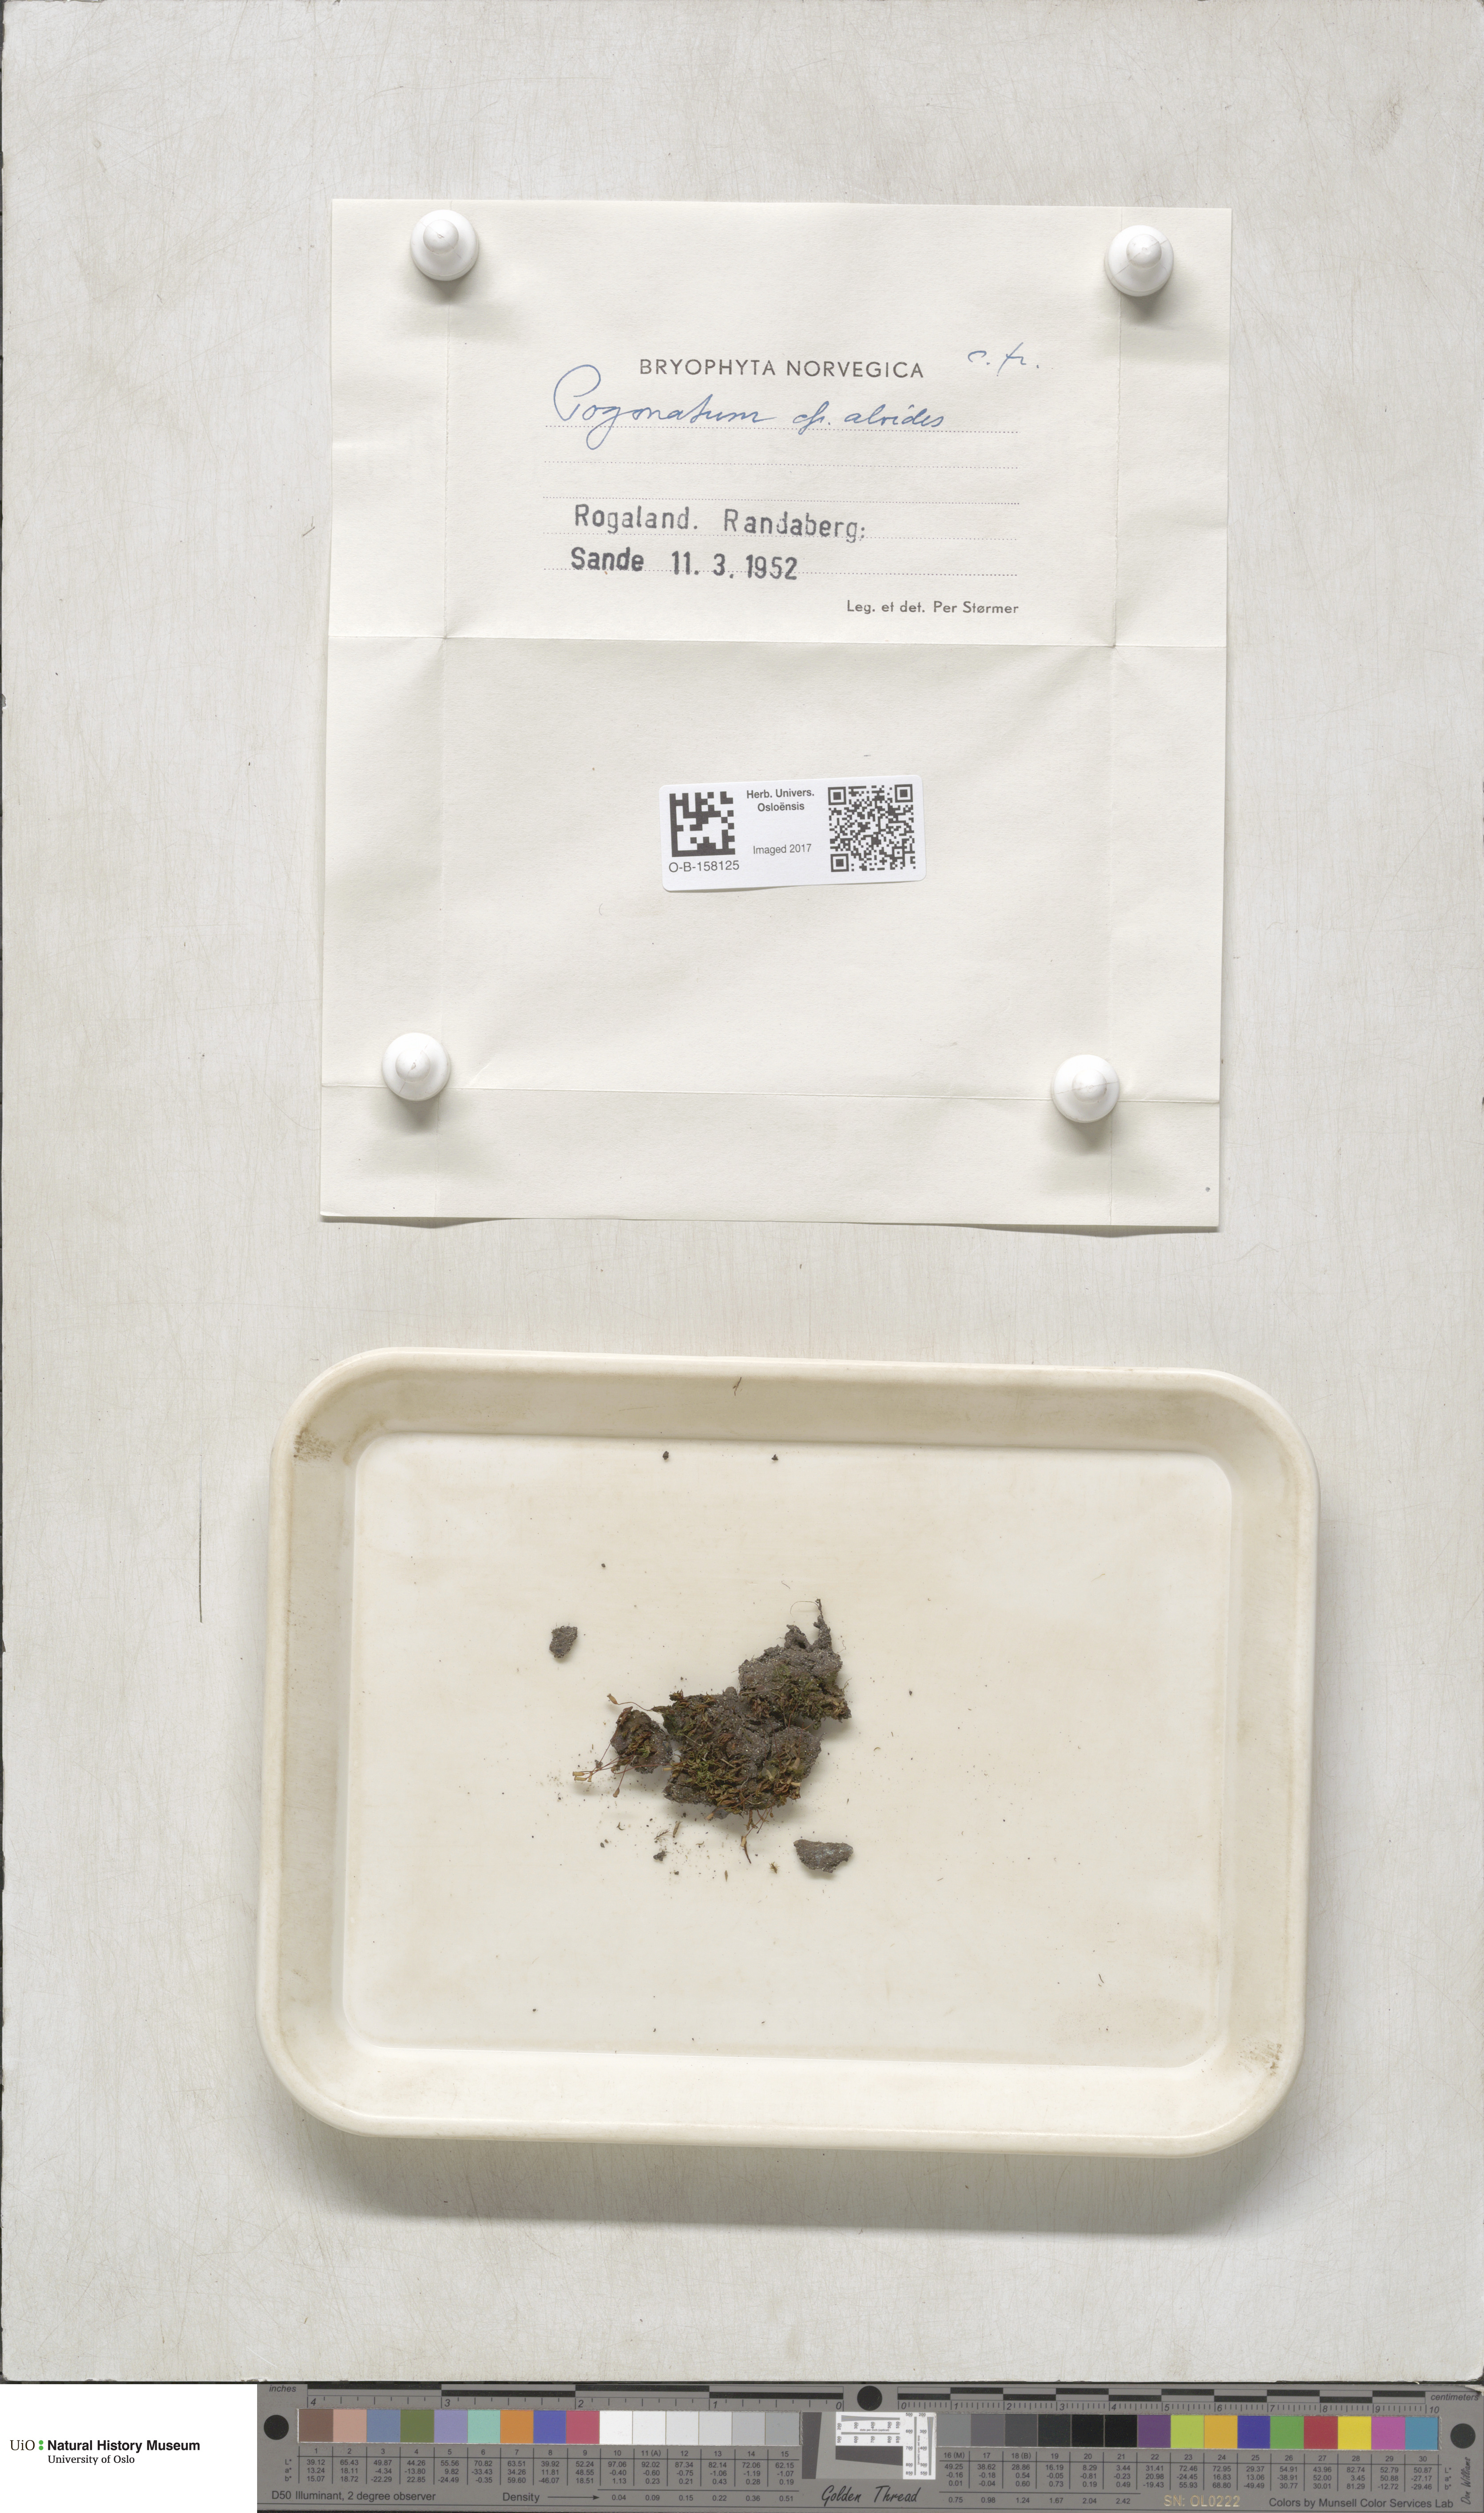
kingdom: Plantae
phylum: Bryophyta
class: Polytrichopsida
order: Polytrichales
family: Polytrichaceae
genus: Pogonatum
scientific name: Pogonatum aloides
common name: Aloe haircap
